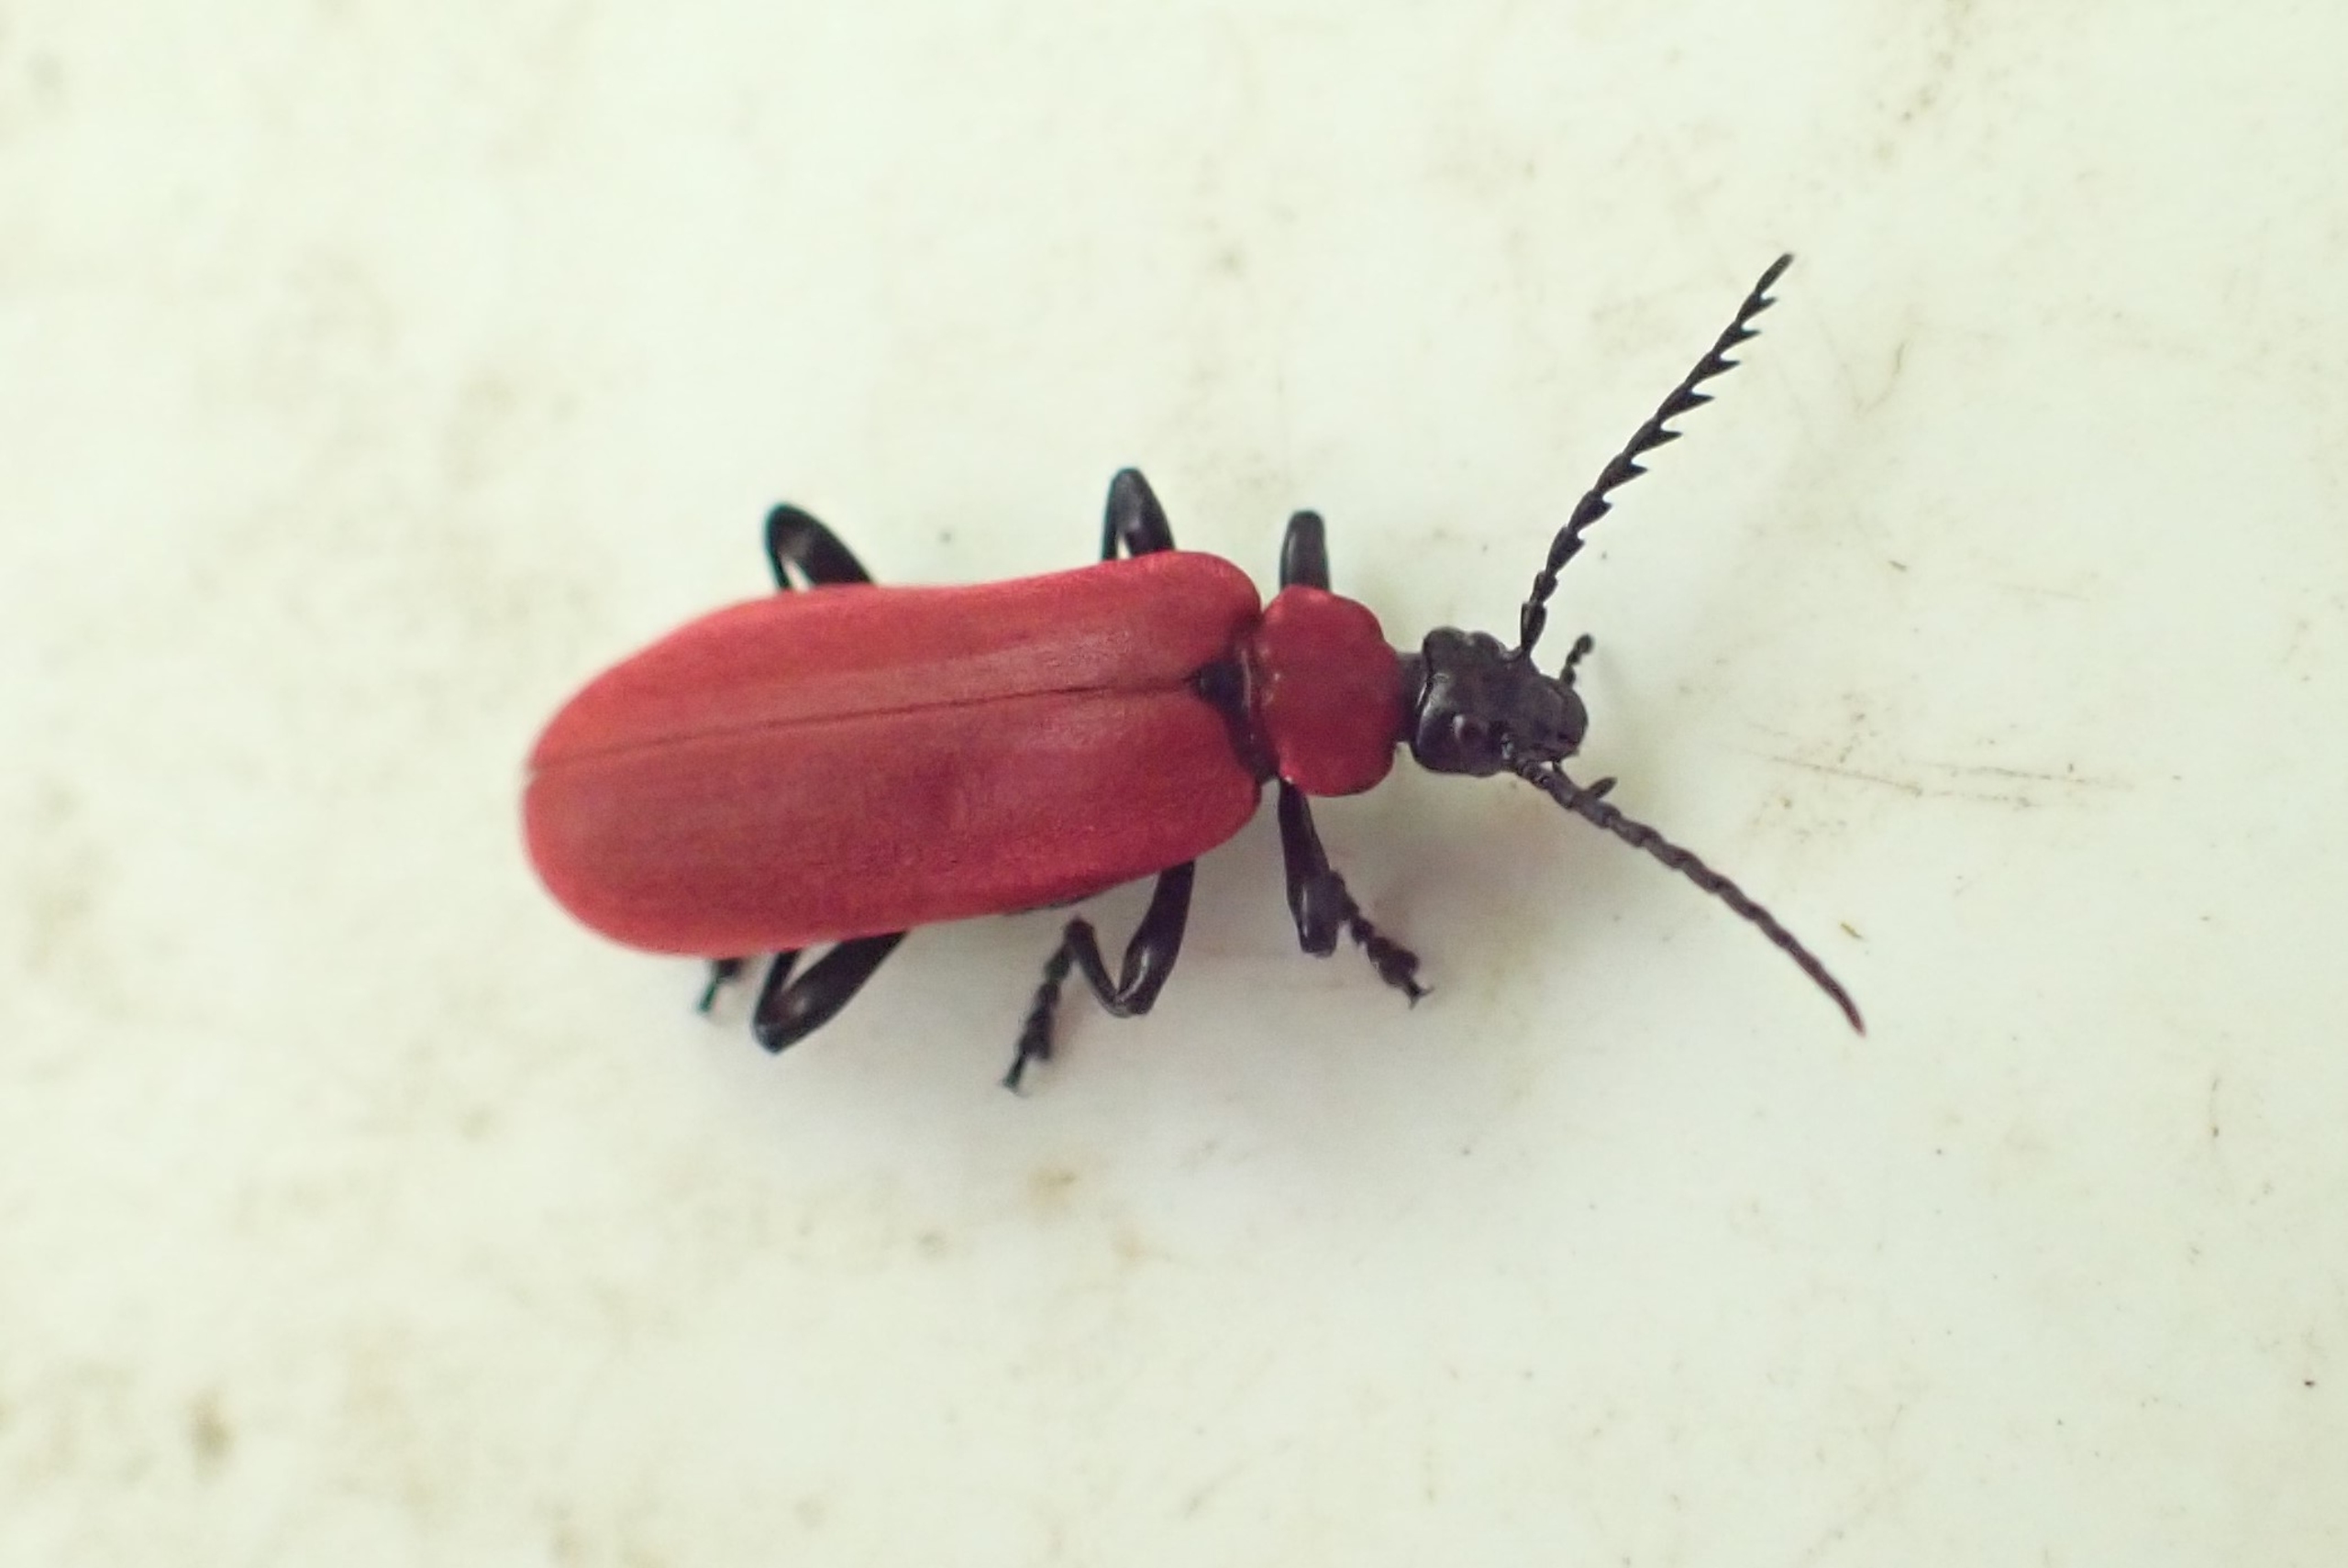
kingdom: Animalia
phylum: Arthropoda
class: Insecta
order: Coleoptera
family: Pyrochroidae
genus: Pyrochroa
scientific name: Pyrochroa coccinea
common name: Sorthovedet kardinalbille
